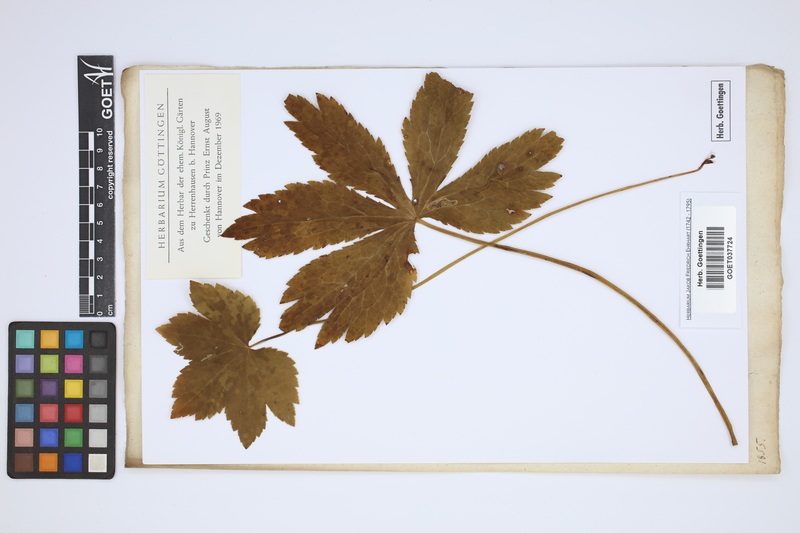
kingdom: Plantae
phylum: Tracheophyta
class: Magnoliopsida
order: Apiales
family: Apiaceae
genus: Astrantia
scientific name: Astrantia major
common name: Greater masterwort
